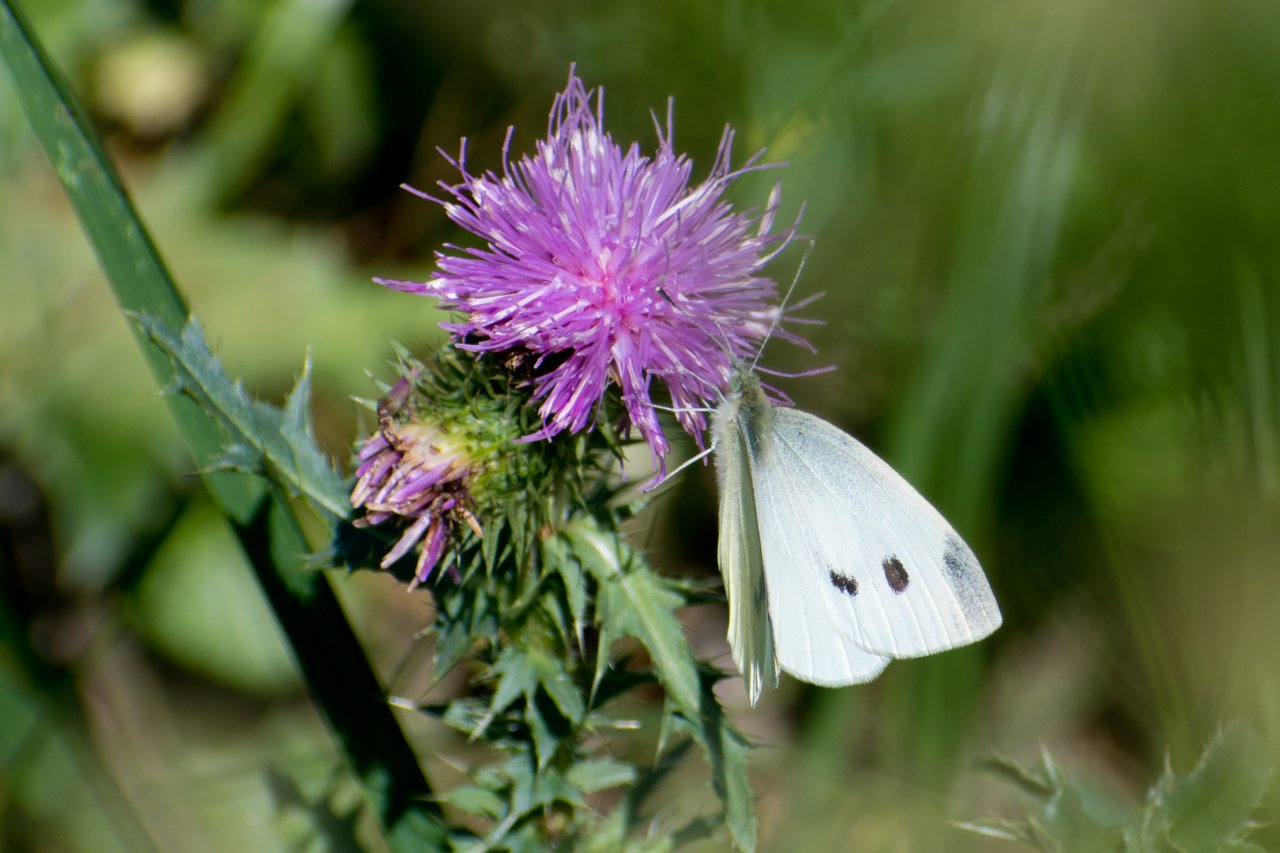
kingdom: Animalia
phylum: Arthropoda
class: Insecta
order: Lepidoptera
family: Pieridae
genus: Pieris
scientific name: Pieris rapae
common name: Cabbage White
